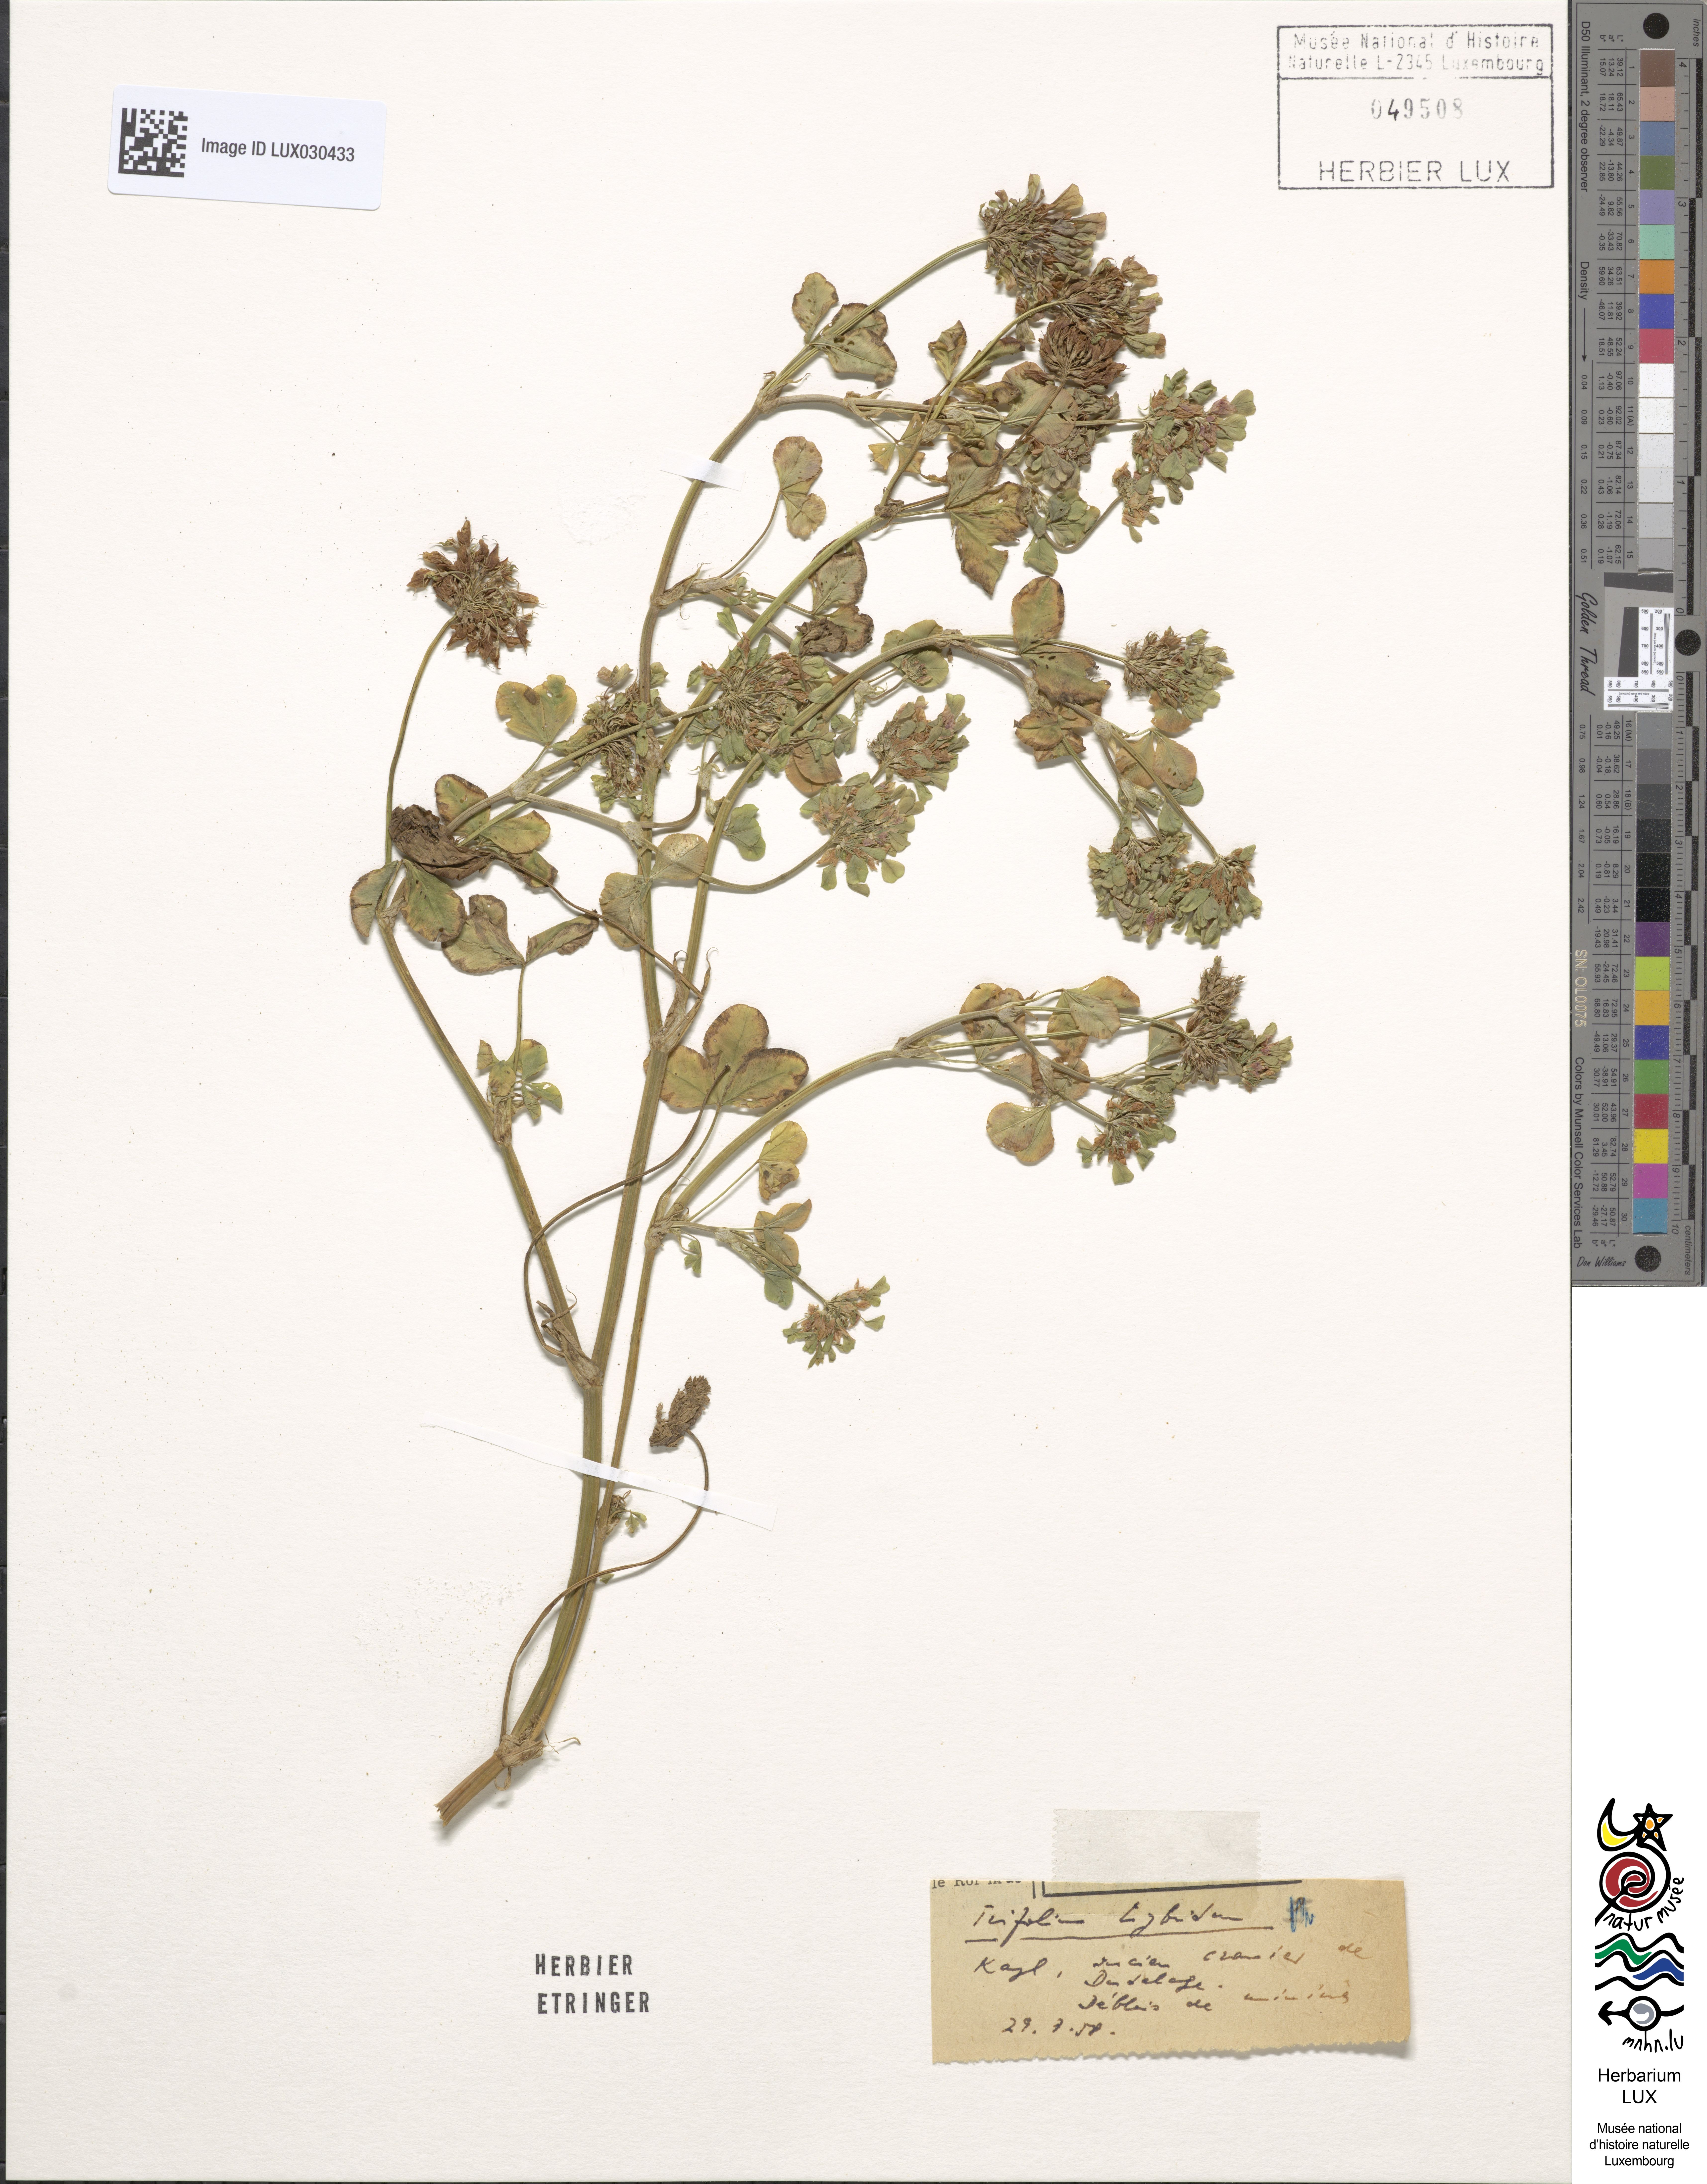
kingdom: Plantae
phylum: Tracheophyta
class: Magnoliopsida
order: Fabales
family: Fabaceae
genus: Trifolium
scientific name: Trifolium hybridum
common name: Alsike clover
